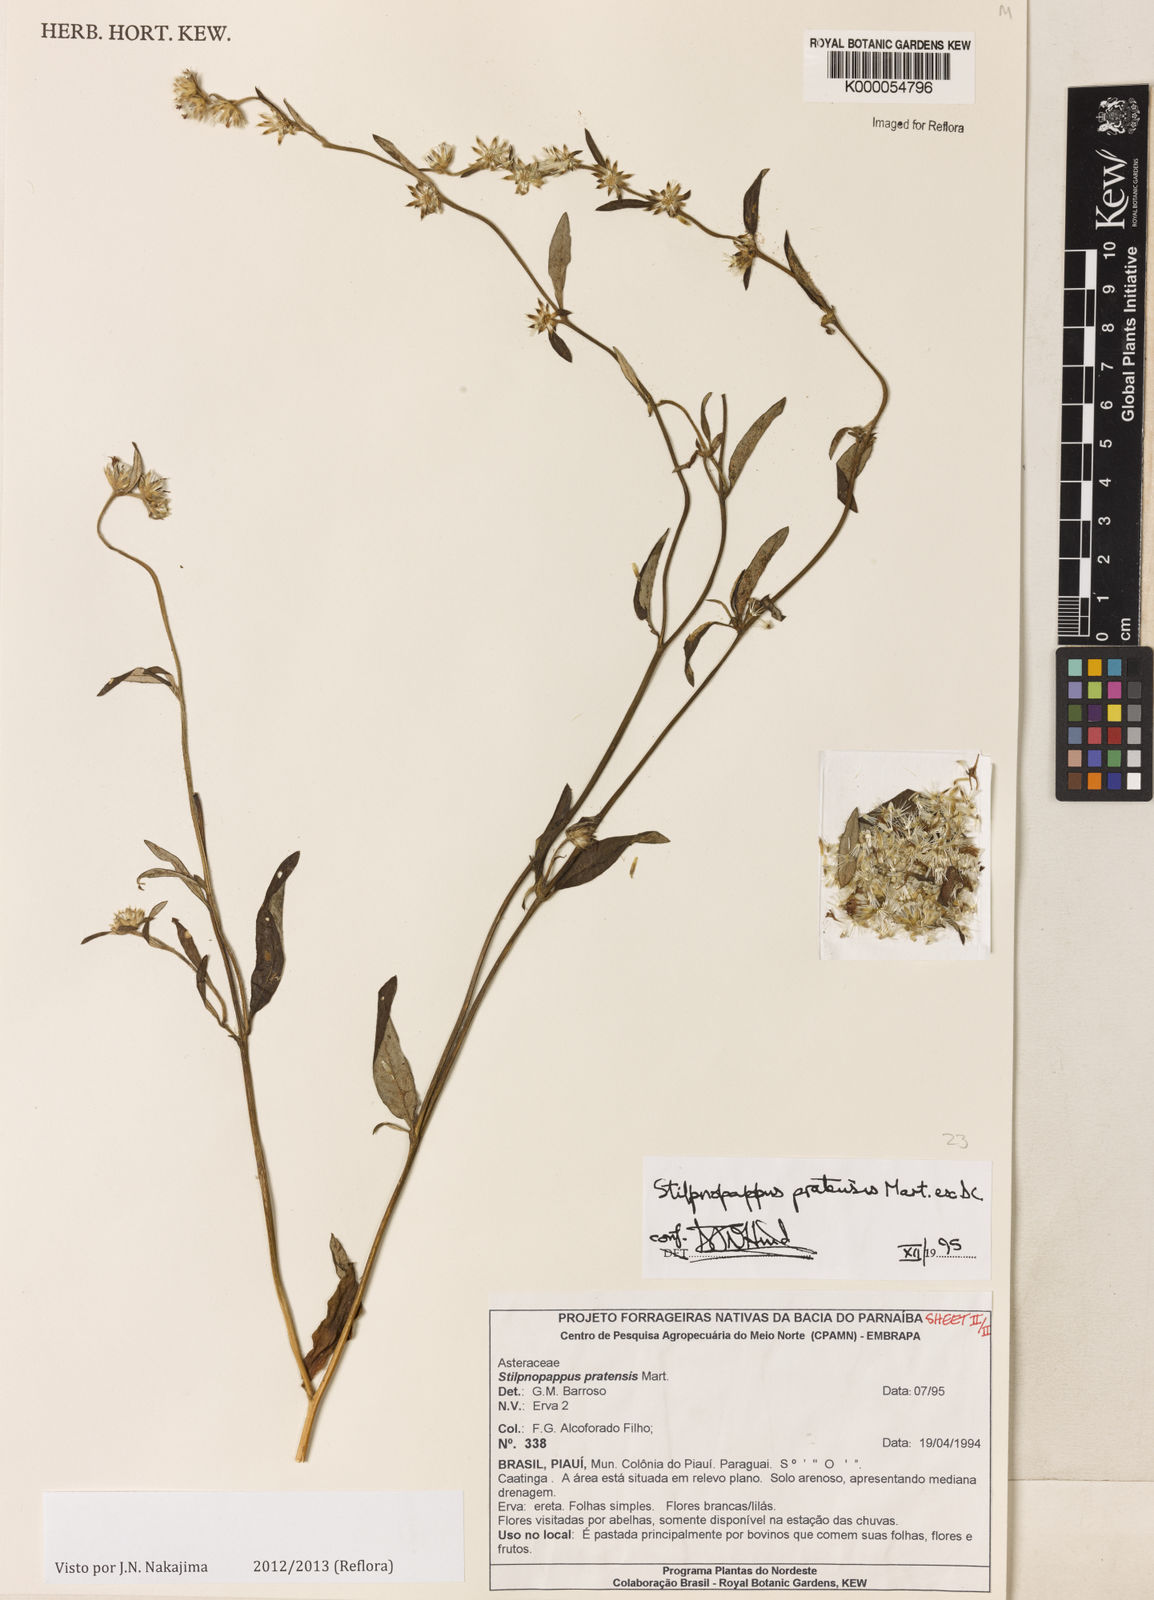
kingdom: Plantae
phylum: Tracheophyta
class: Magnoliopsida
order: Asterales
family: Asteraceae
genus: Stilpnopappus
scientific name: Stilpnopappus pratensis
